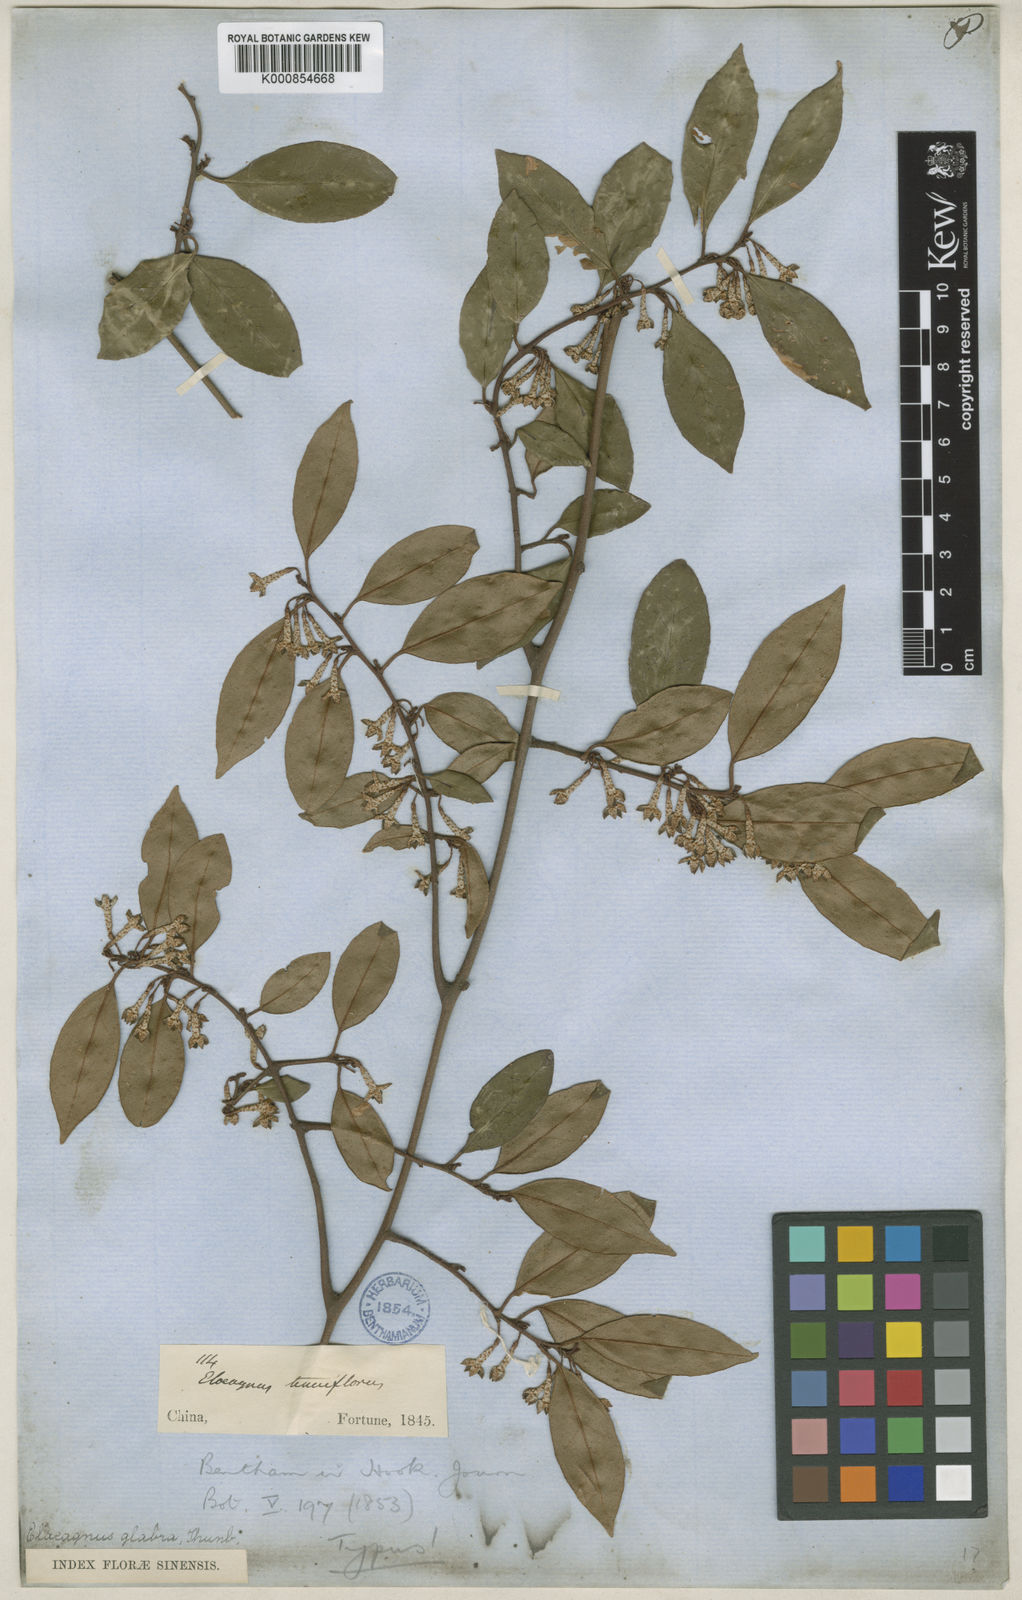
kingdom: Plantae
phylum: Tracheophyta
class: Magnoliopsida
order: Rosales
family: Elaeagnaceae
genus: Elaeagnus
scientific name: Elaeagnus glabra
